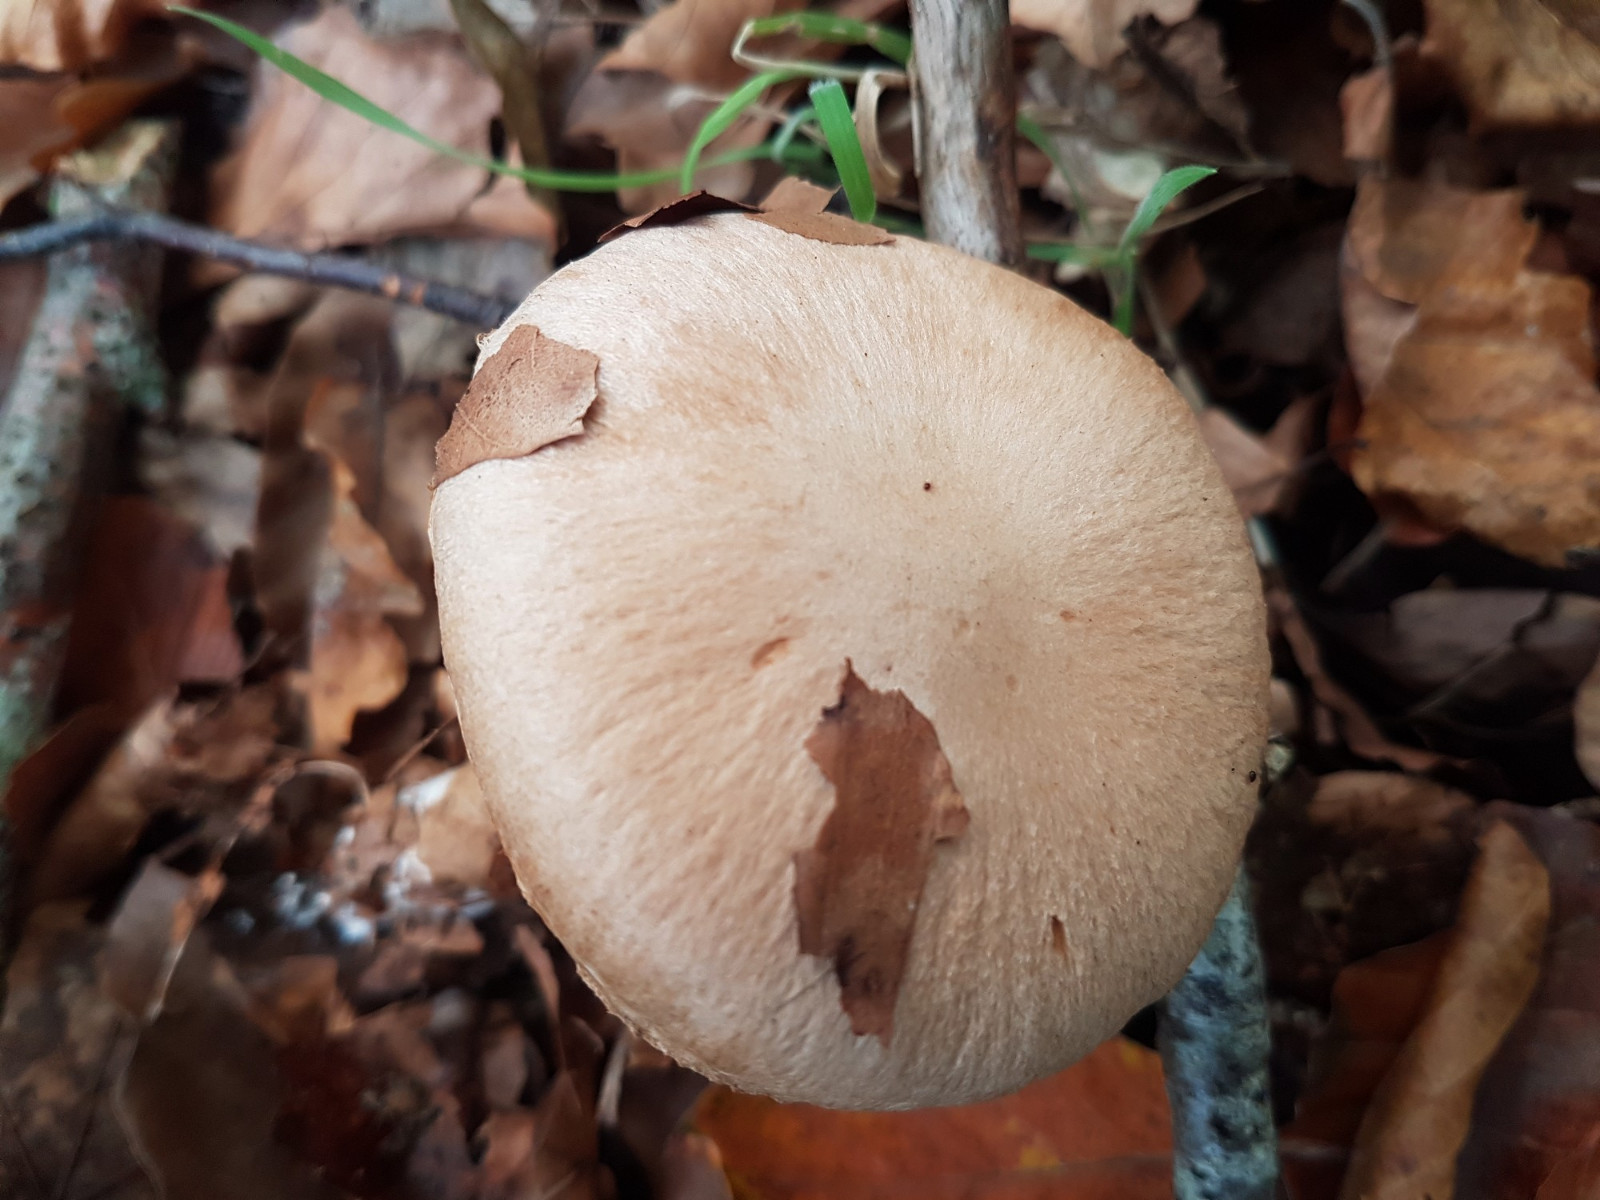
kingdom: Fungi
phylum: Basidiomycota
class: Agaricomycetes
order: Agaricales
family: Cortinariaceae
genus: Cortinarius
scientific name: Cortinarius torvus
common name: champignonagtig slørhat
